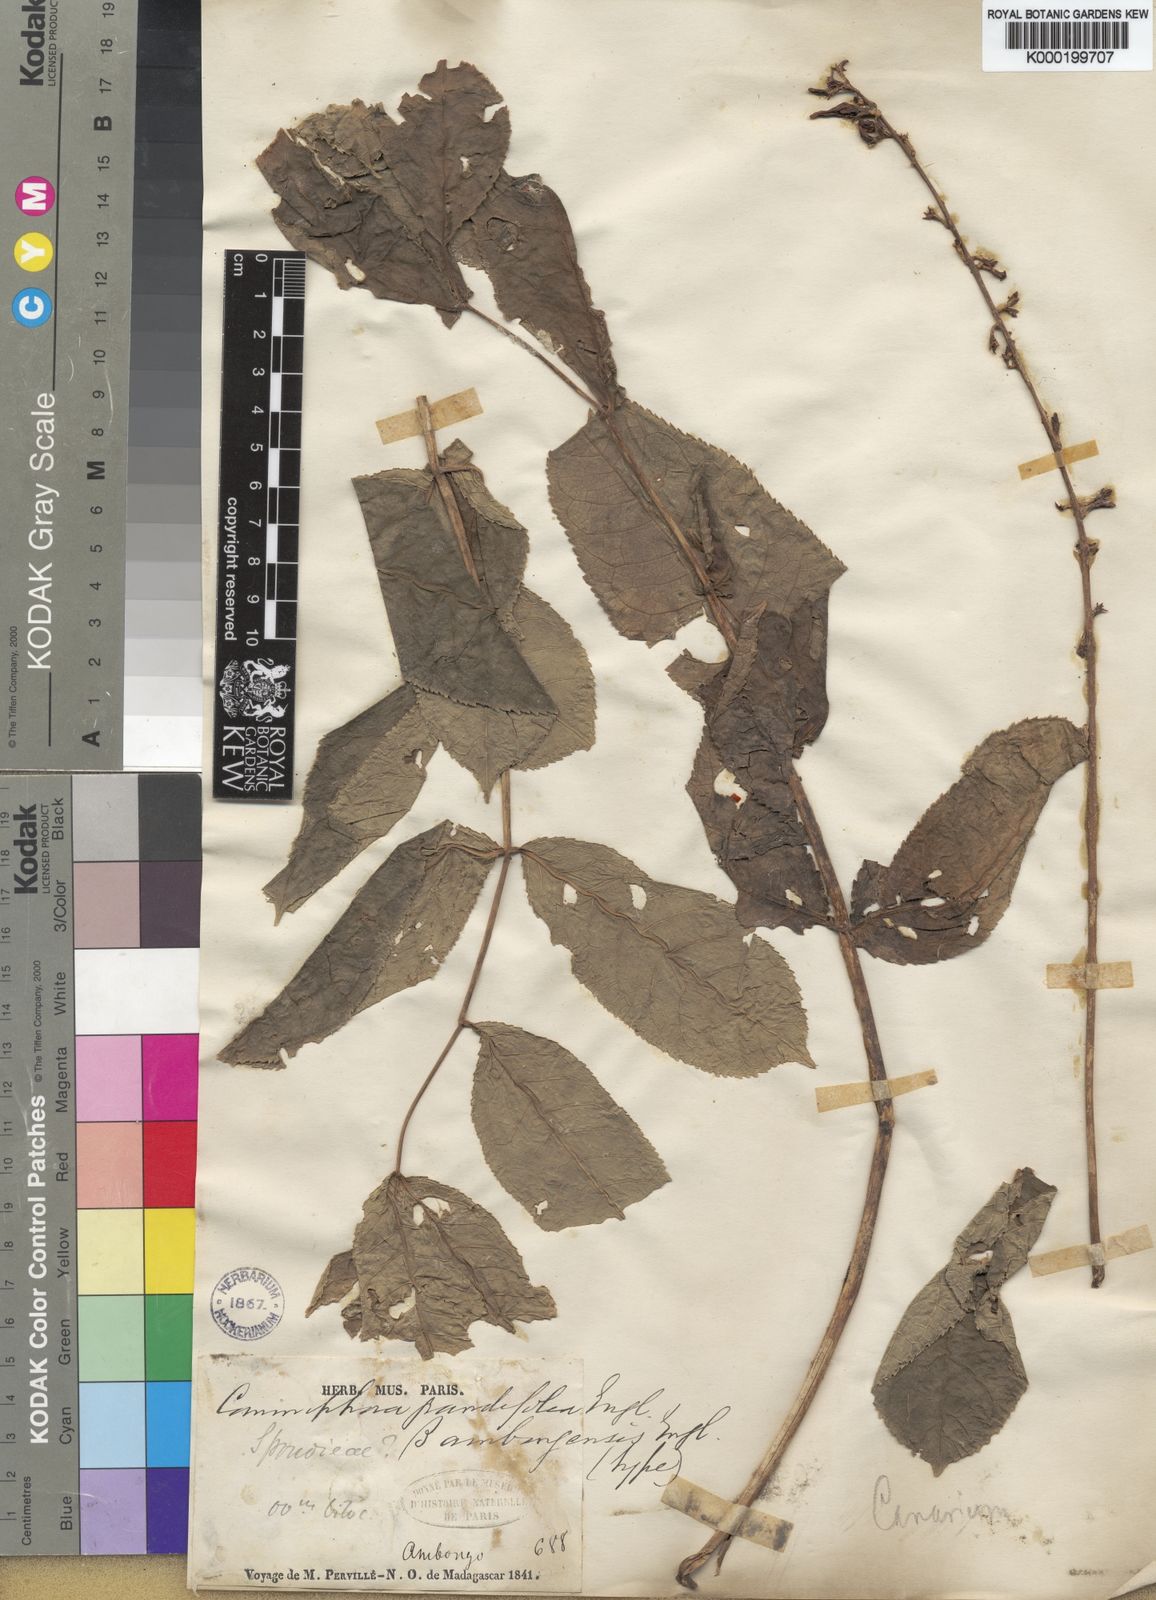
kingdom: Plantae
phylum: Tracheophyta
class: Magnoliopsida
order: Sapindales
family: Burseraceae
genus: Commiphora
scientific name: Commiphora grandifolia
